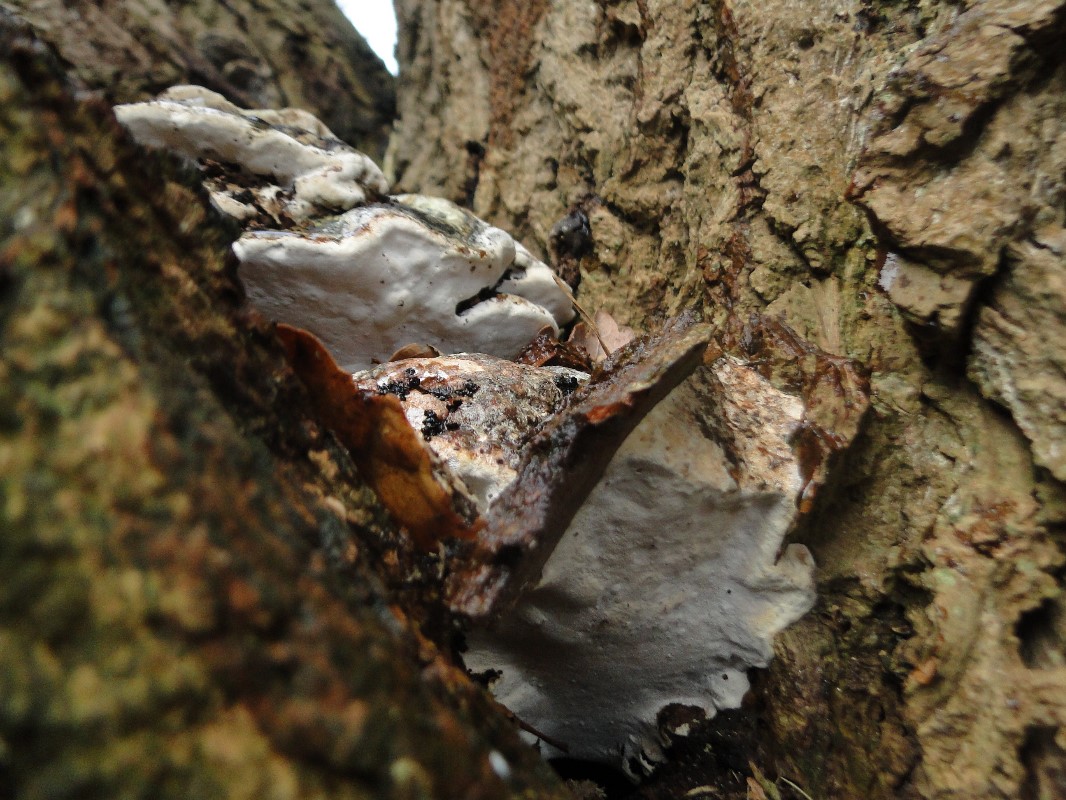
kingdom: Fungi
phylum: Basidiomycota
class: Agaricomycetes
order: Hymenochaetales
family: Oxyporaceae
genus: Oxyporus
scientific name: Oxyporus populinus
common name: sammenvokset trylleporesvamp
